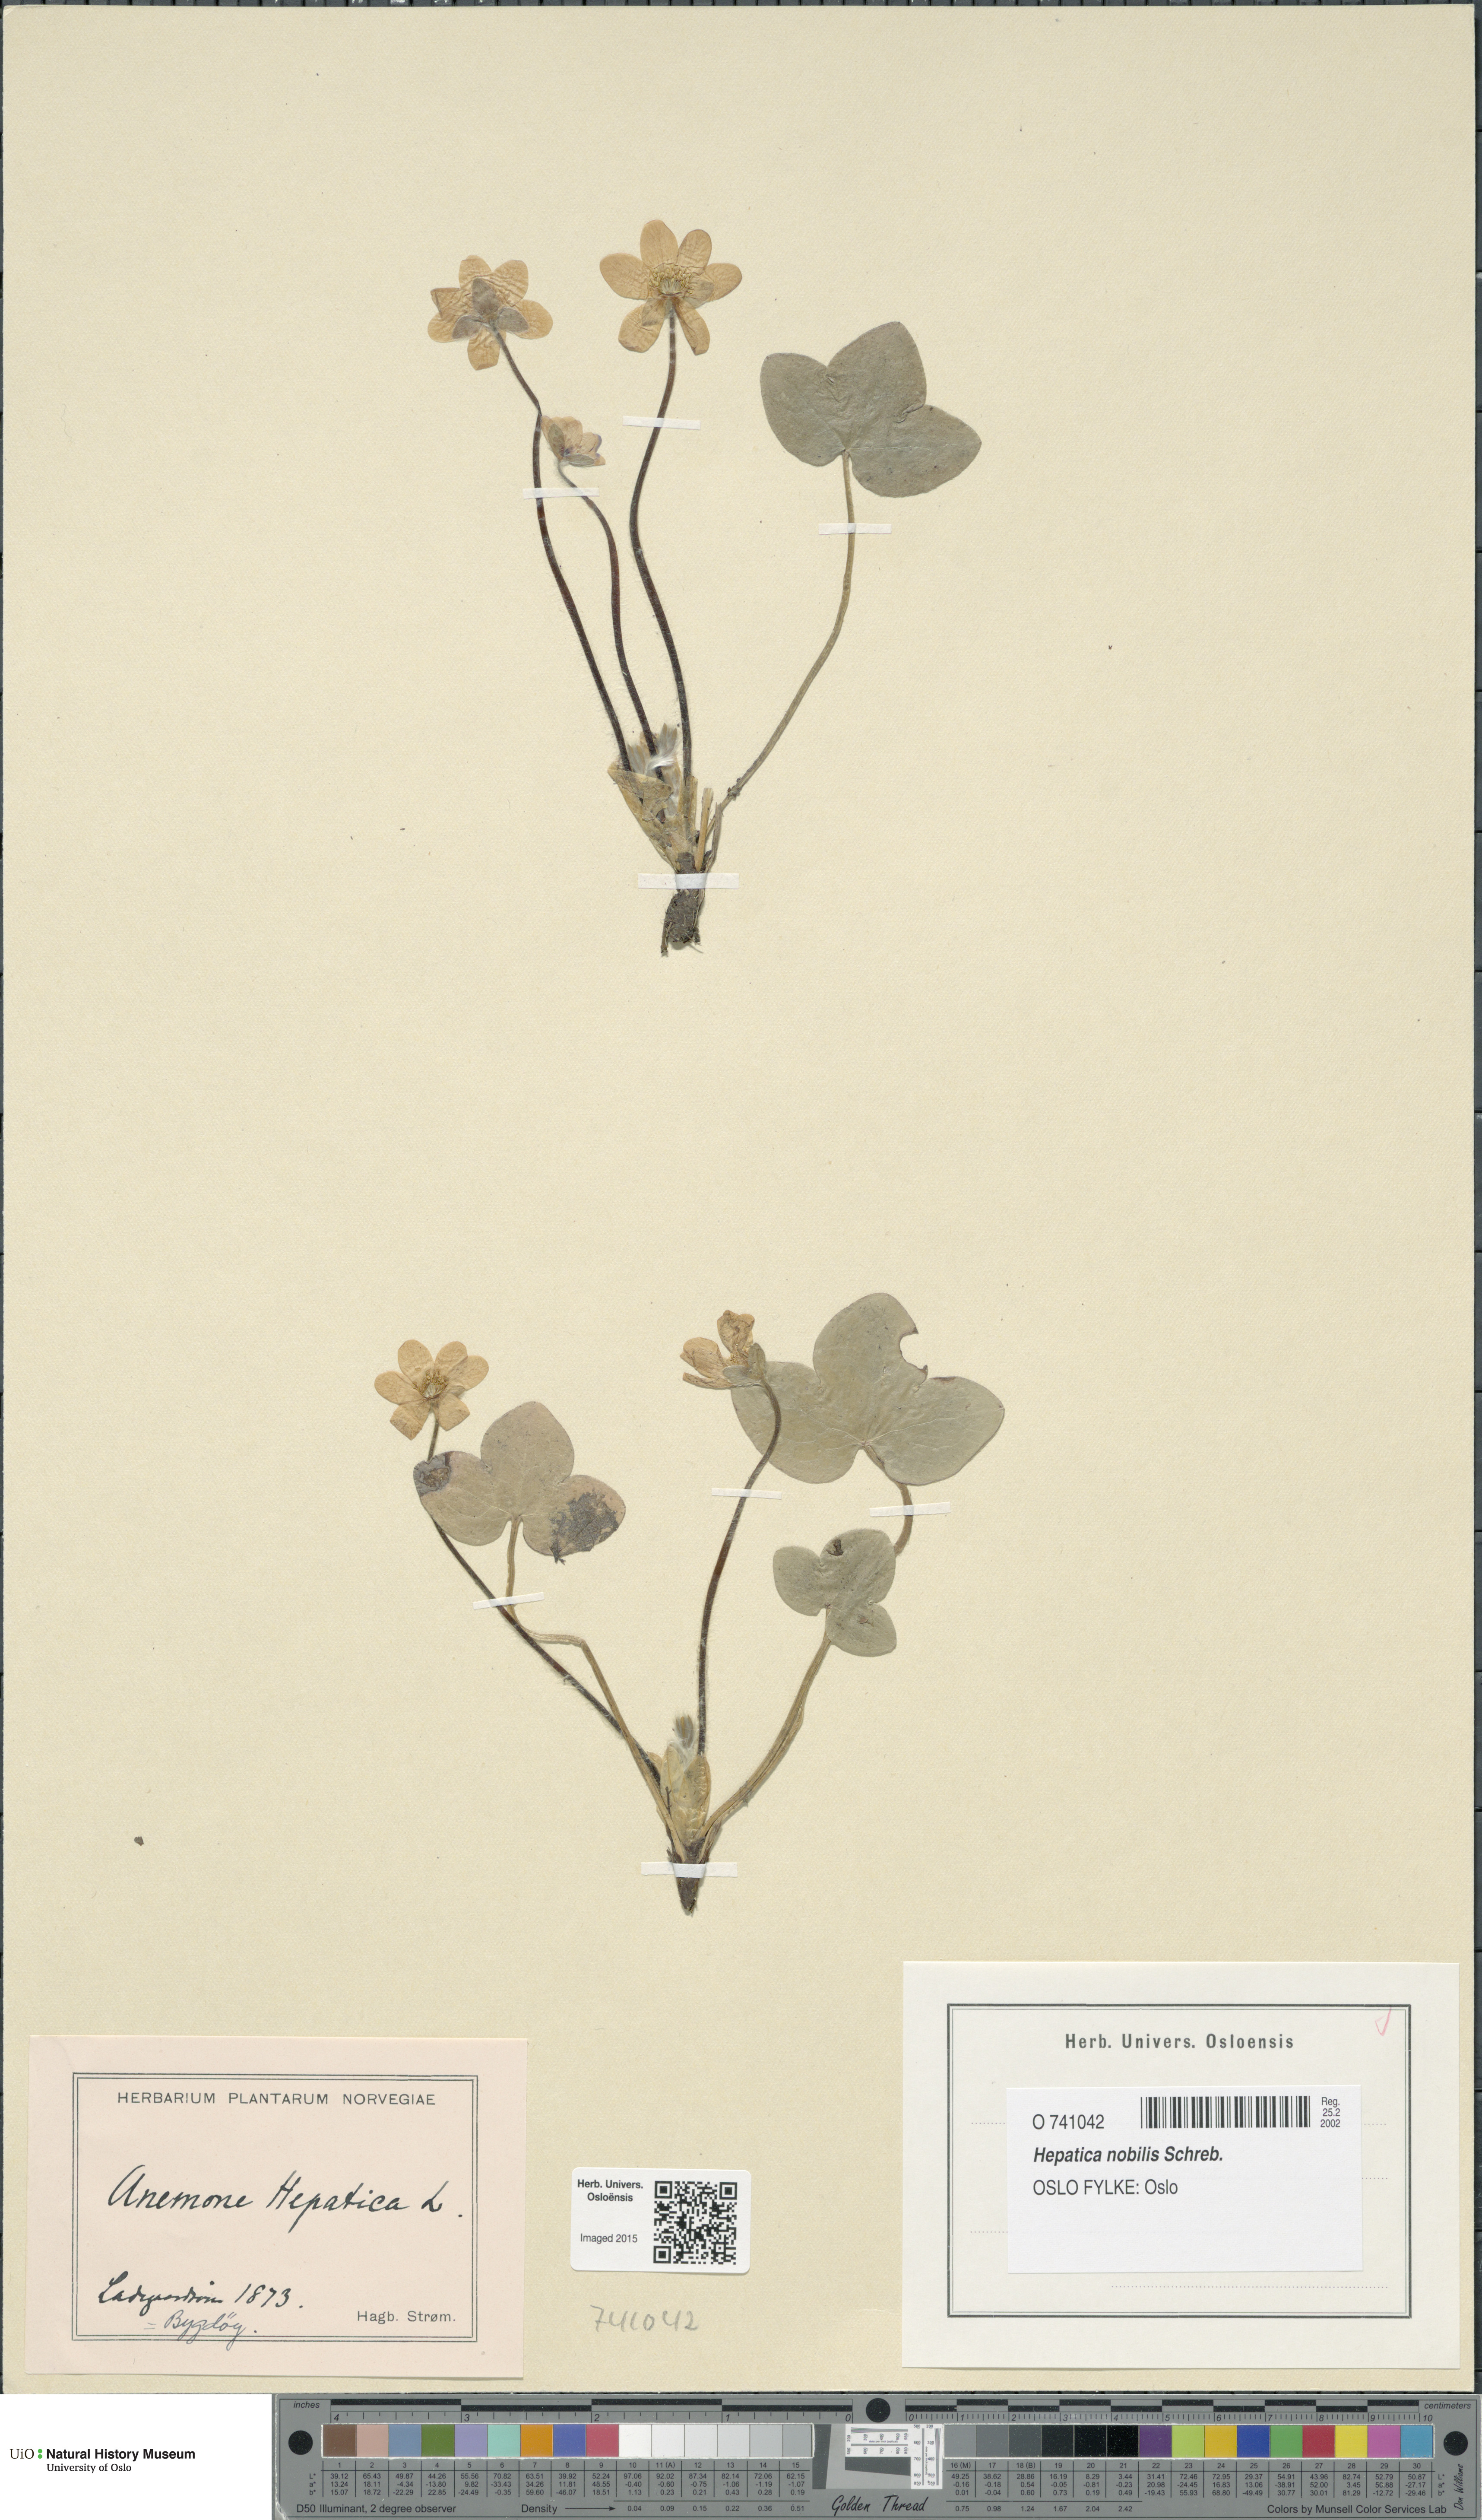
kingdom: Plantae
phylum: Tracheophyta
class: Magnoliopsida
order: Ranunculales
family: Ranunculaceae
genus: Hepatica
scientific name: Hepatica nobilis
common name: Liverleaf
